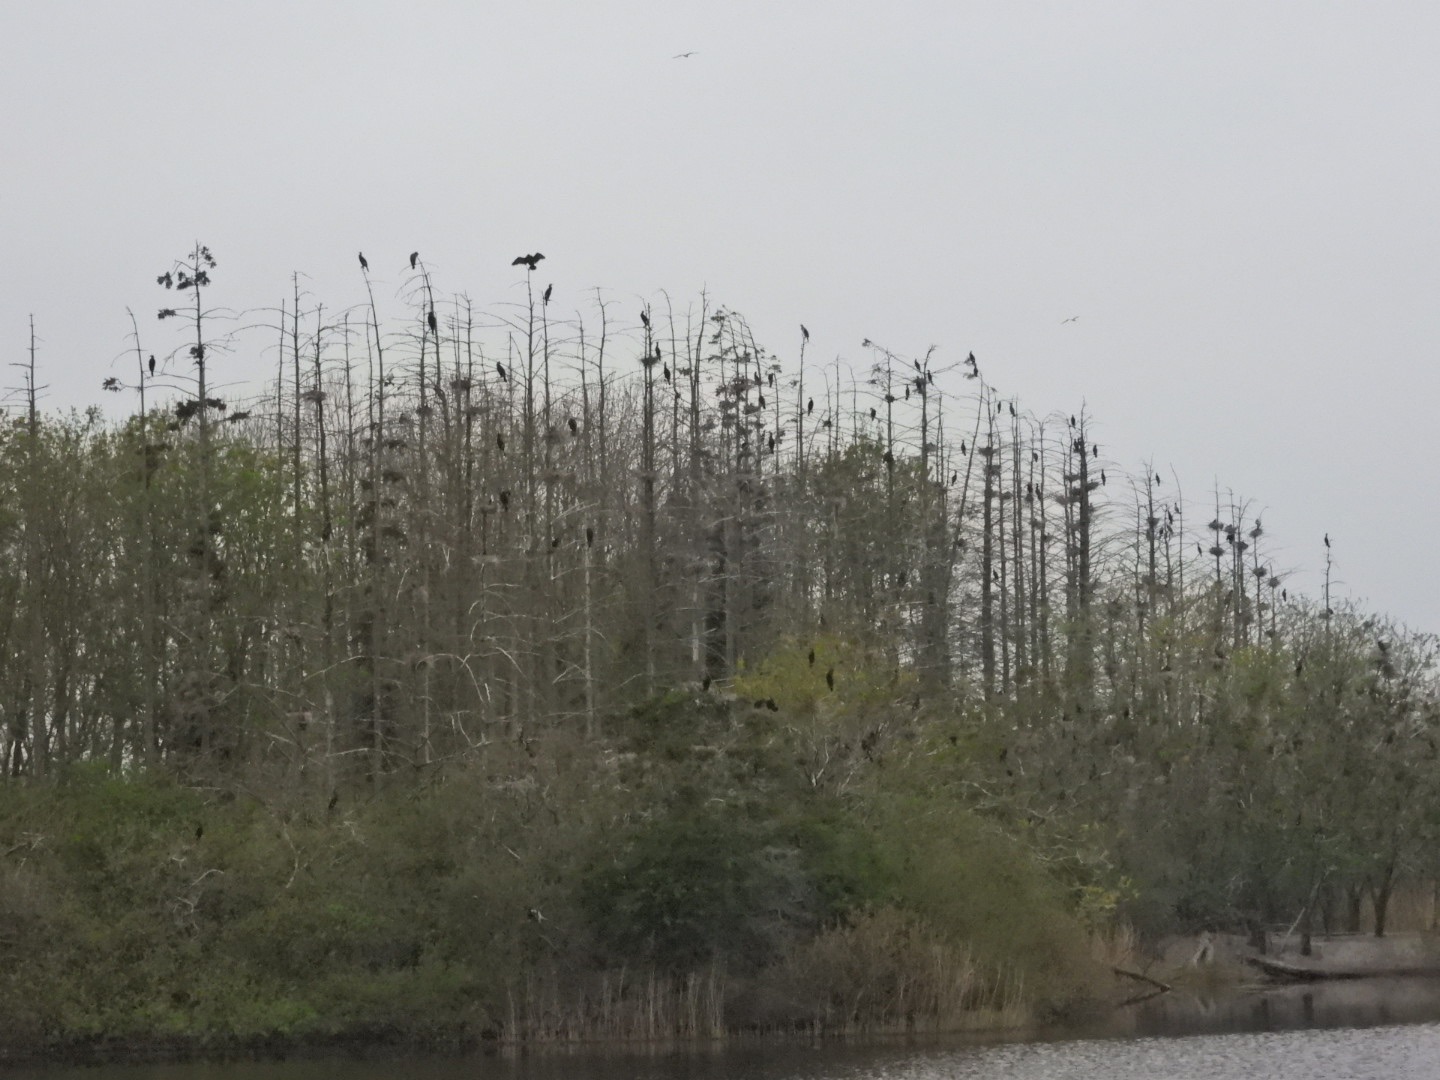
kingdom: Animalia
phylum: Chordata
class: Aves
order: Suliformes
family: Phalacrocoracidae
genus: Phalacrocorax
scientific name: Phalacrocorax carbo
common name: Skarv
